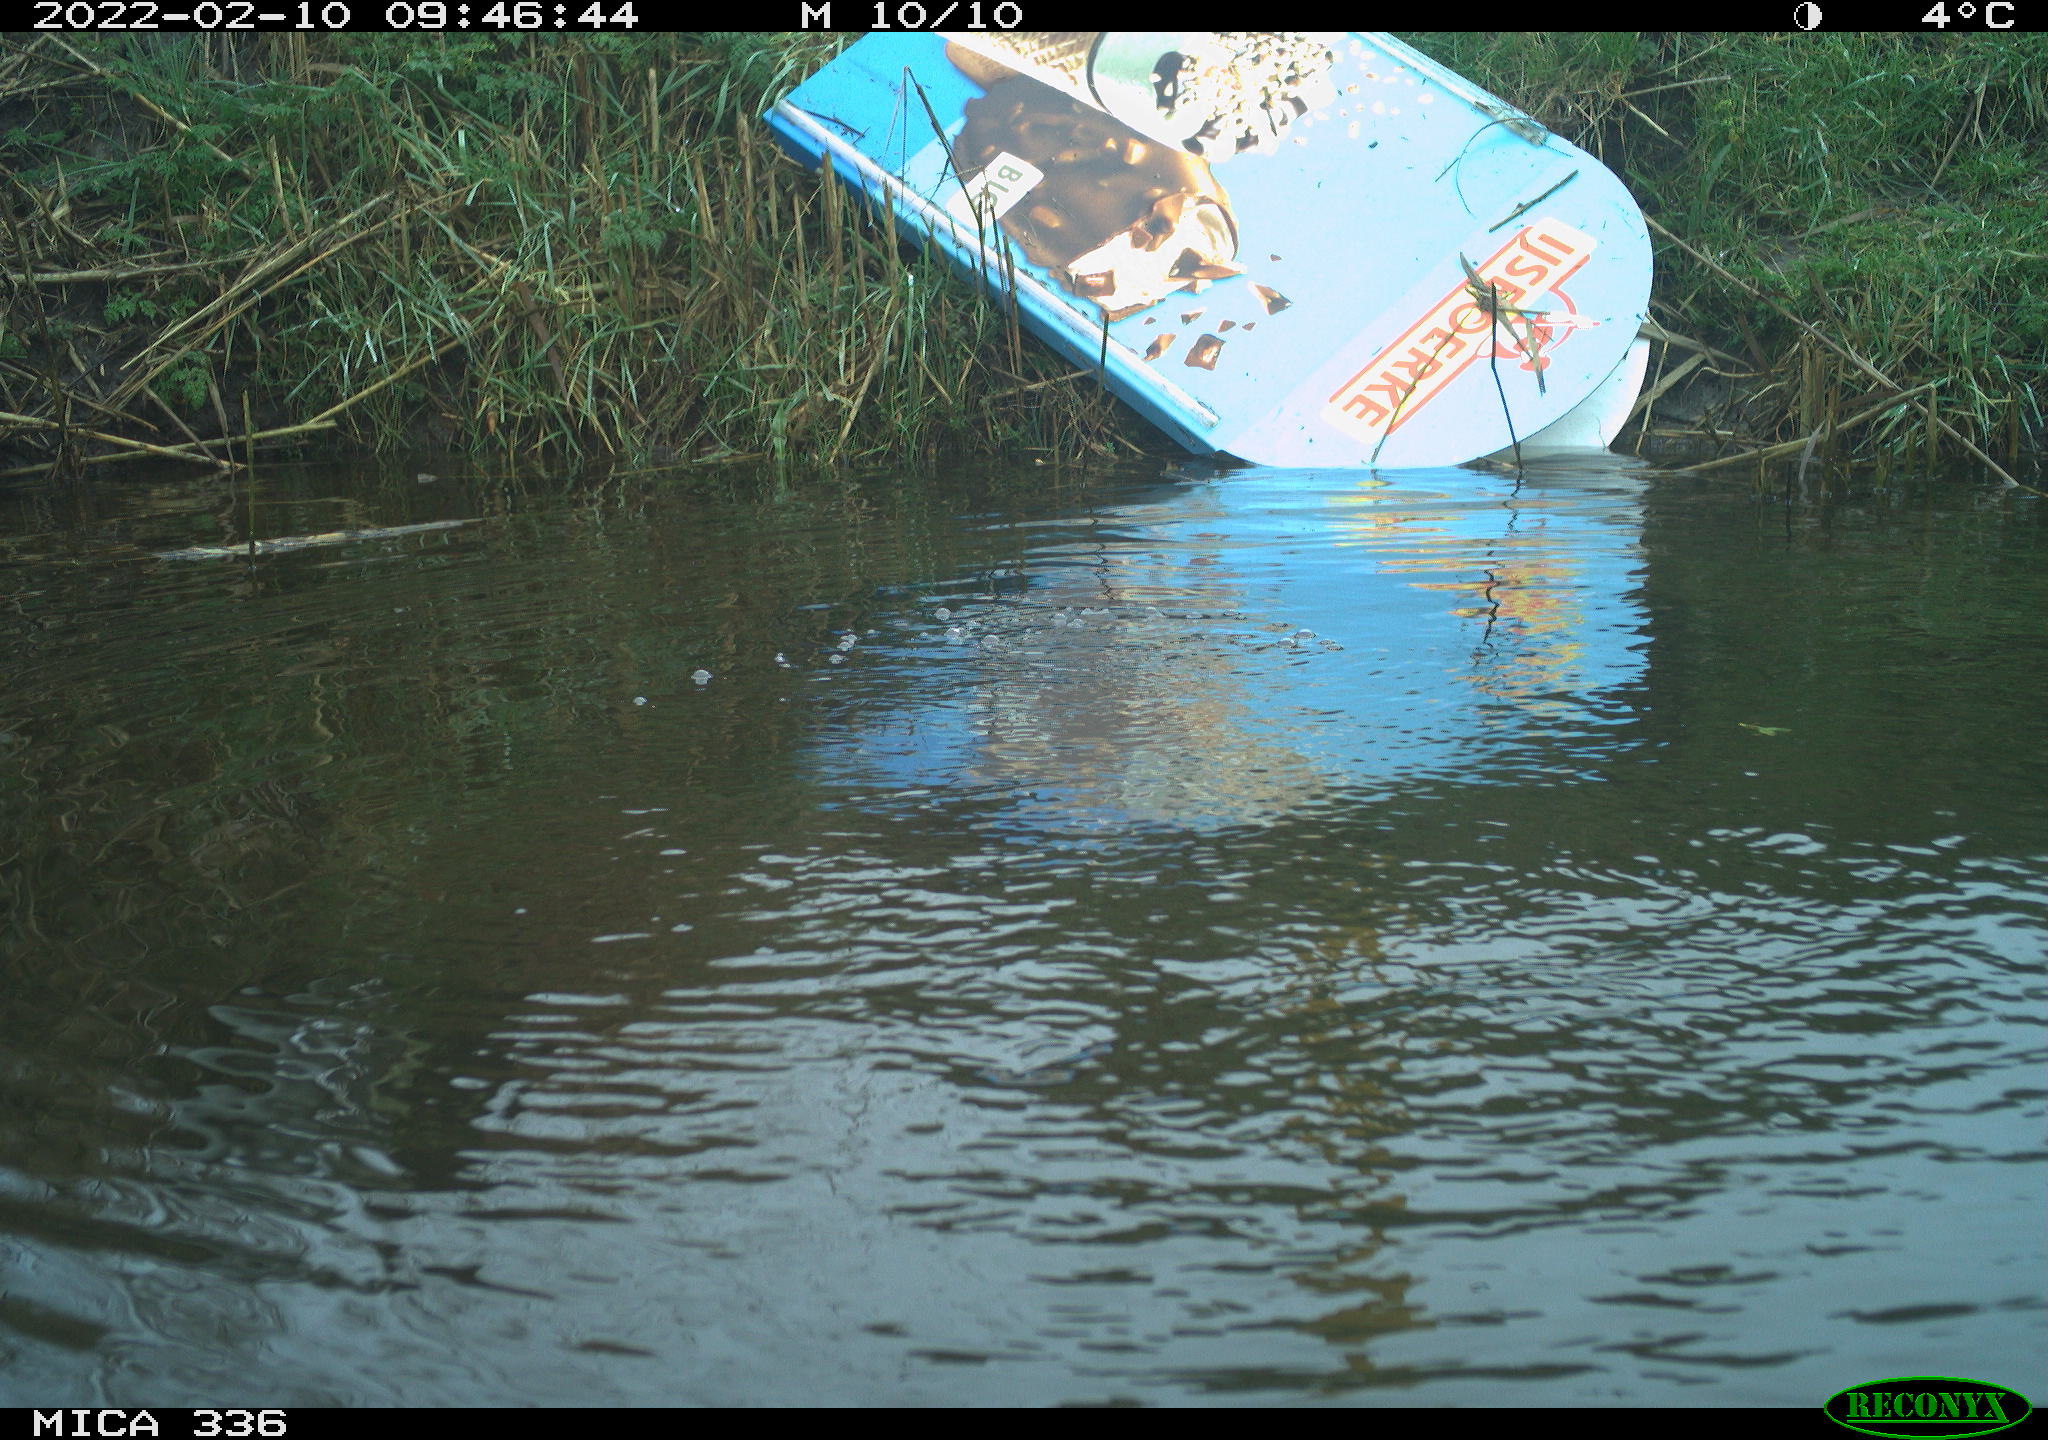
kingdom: Animalia
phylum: Chordata
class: Aves
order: Suliformes
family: Phalacrocoracidae
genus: Phalacrocorax
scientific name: Phalacrocorax carbo
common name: Great cormorant
